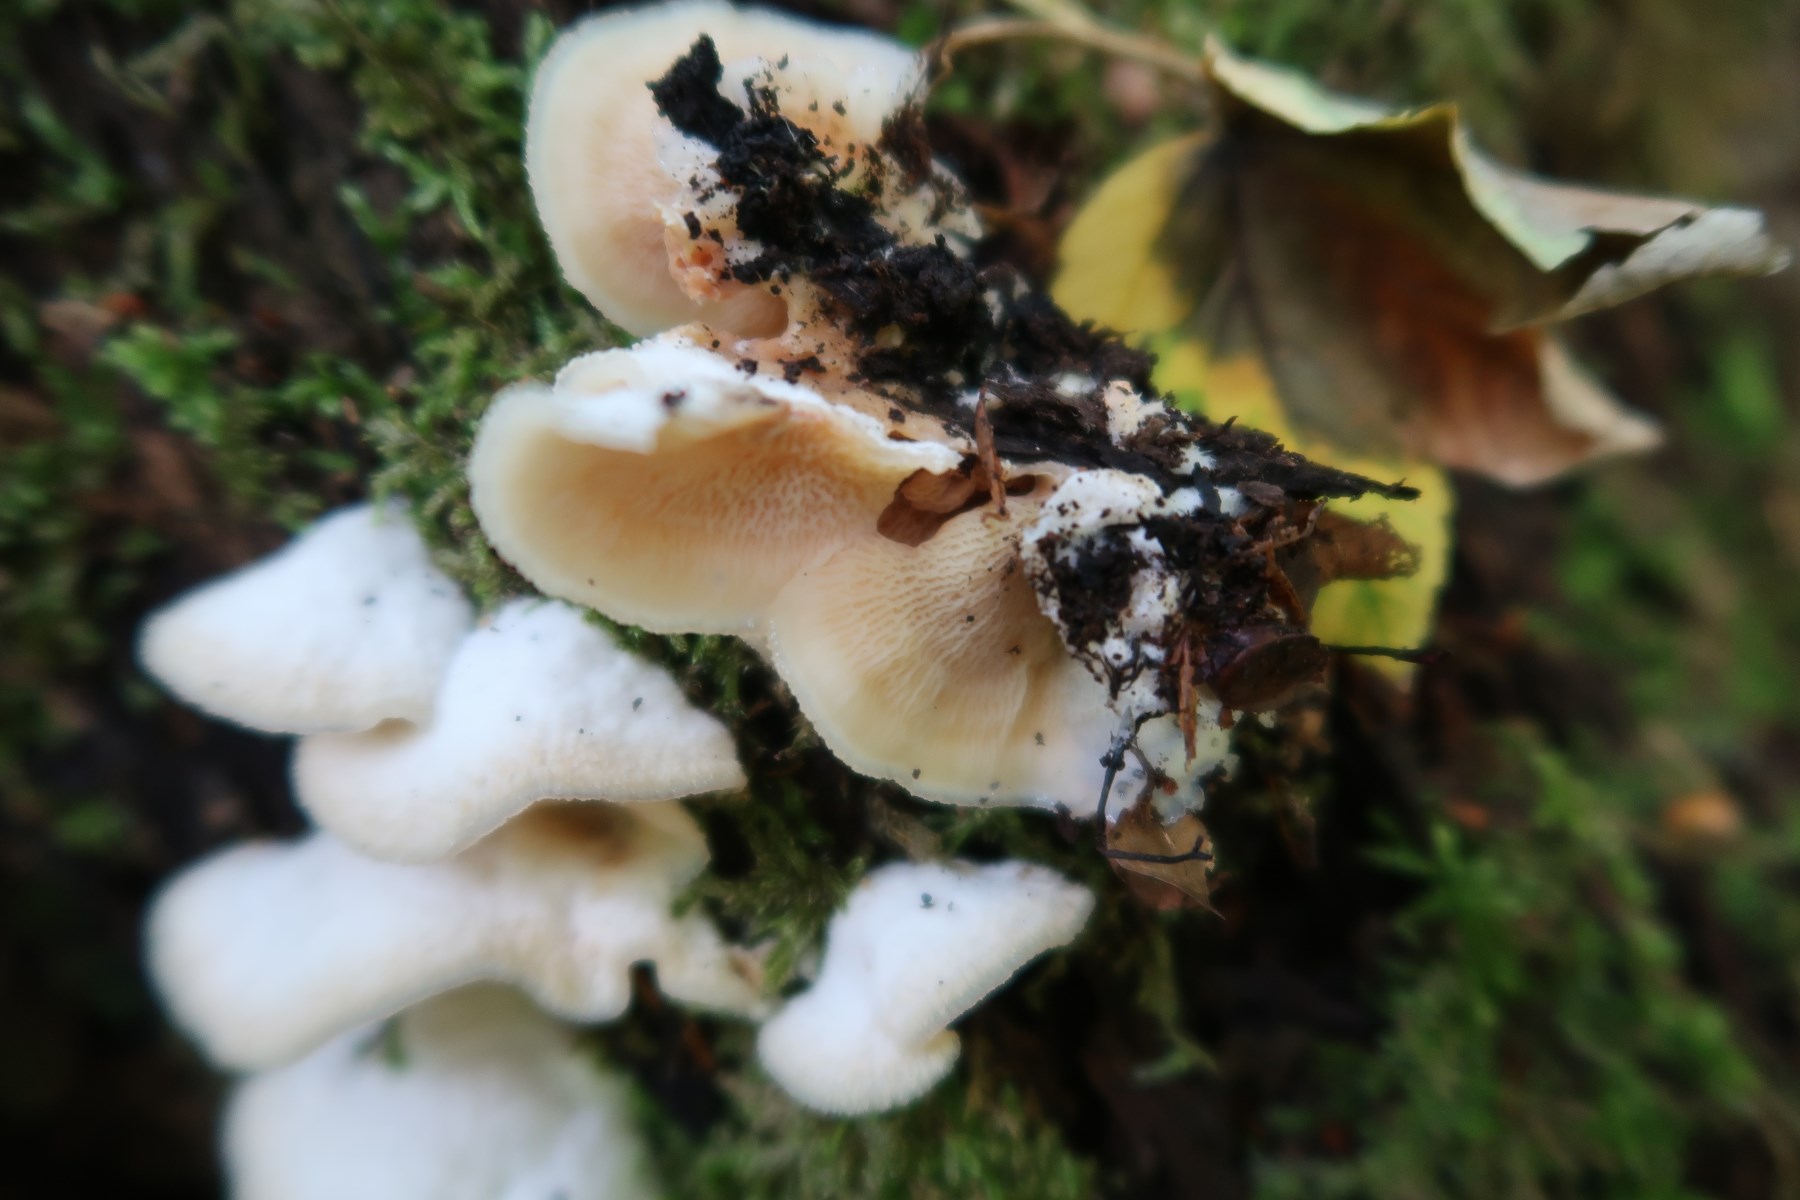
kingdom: Fungi
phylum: Basidiomycota
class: Agaricomycetes
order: Polyporales
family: Meruliaceae
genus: Phlebia
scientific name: Phlebia tremellosa
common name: bævrende åresvamp
